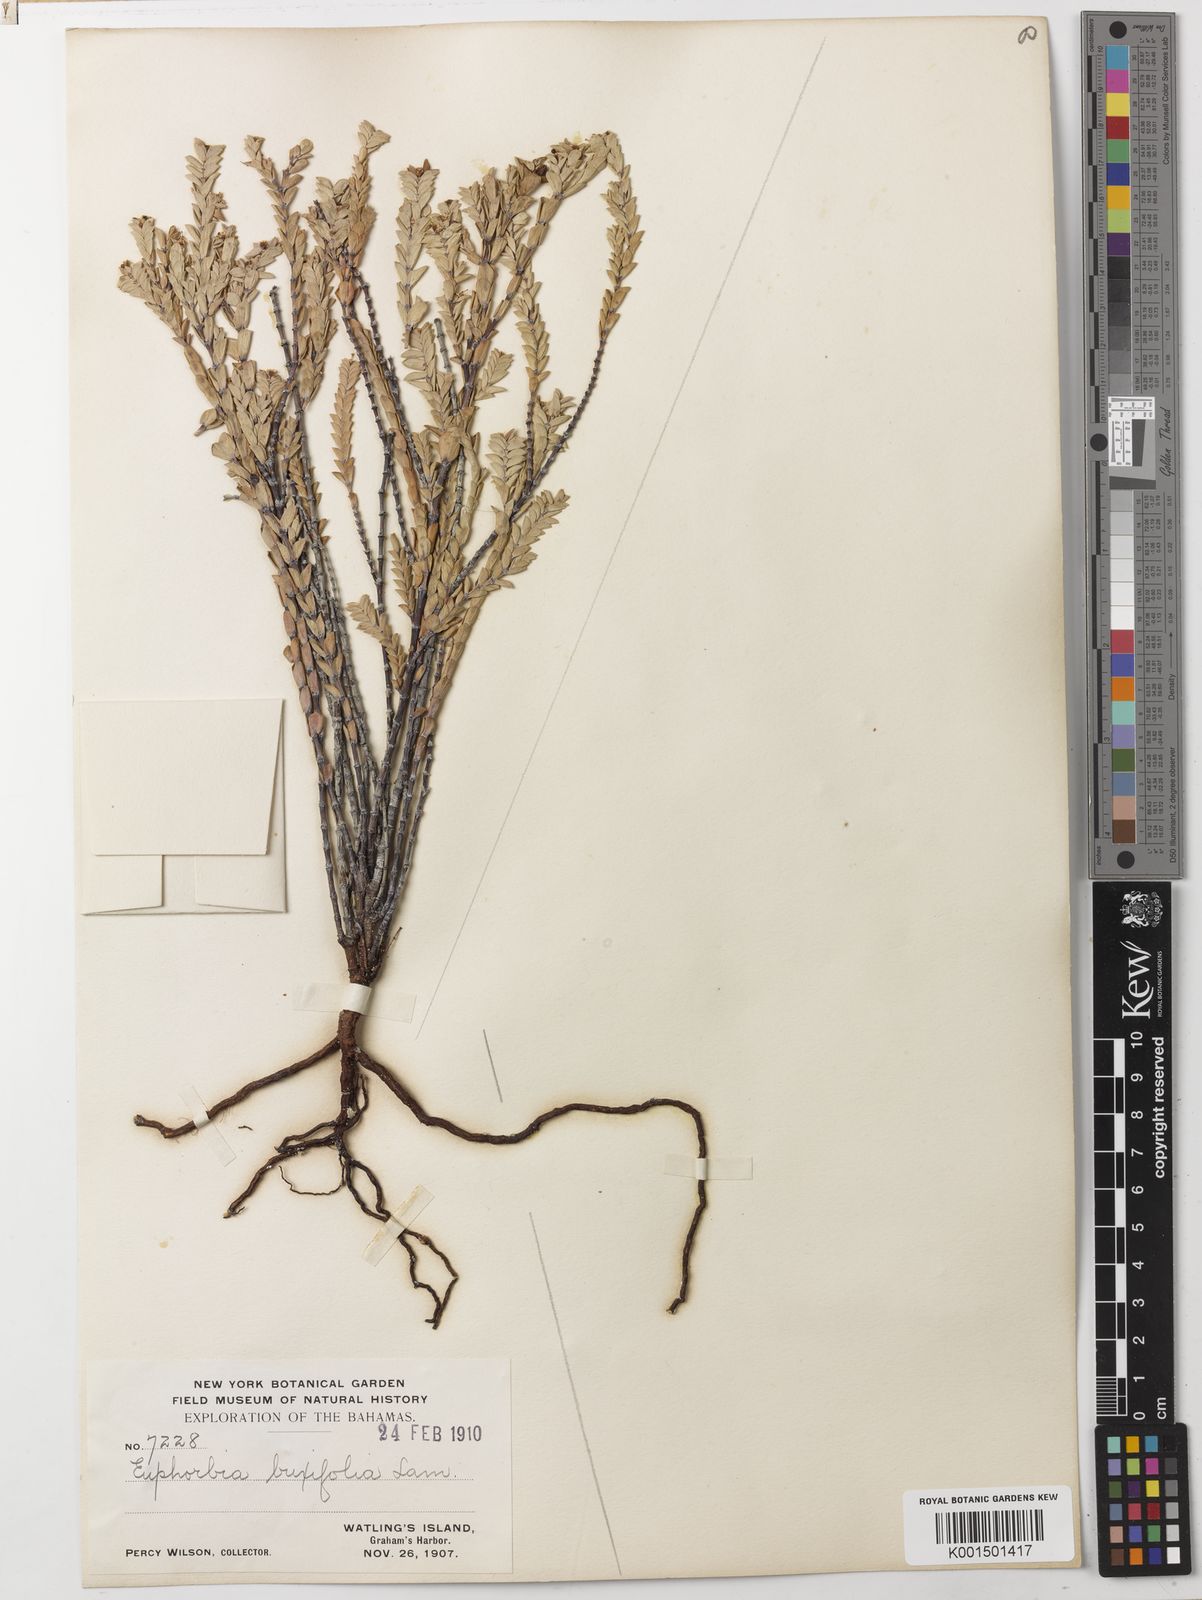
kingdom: Plantae
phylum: Tracheophyta
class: Magnoliopsida
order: Malpighiales
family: Euphorbiaceae
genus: Euphorbia
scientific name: Euphorbia mesembryanthemifolia
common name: Coastal beach sandmat
